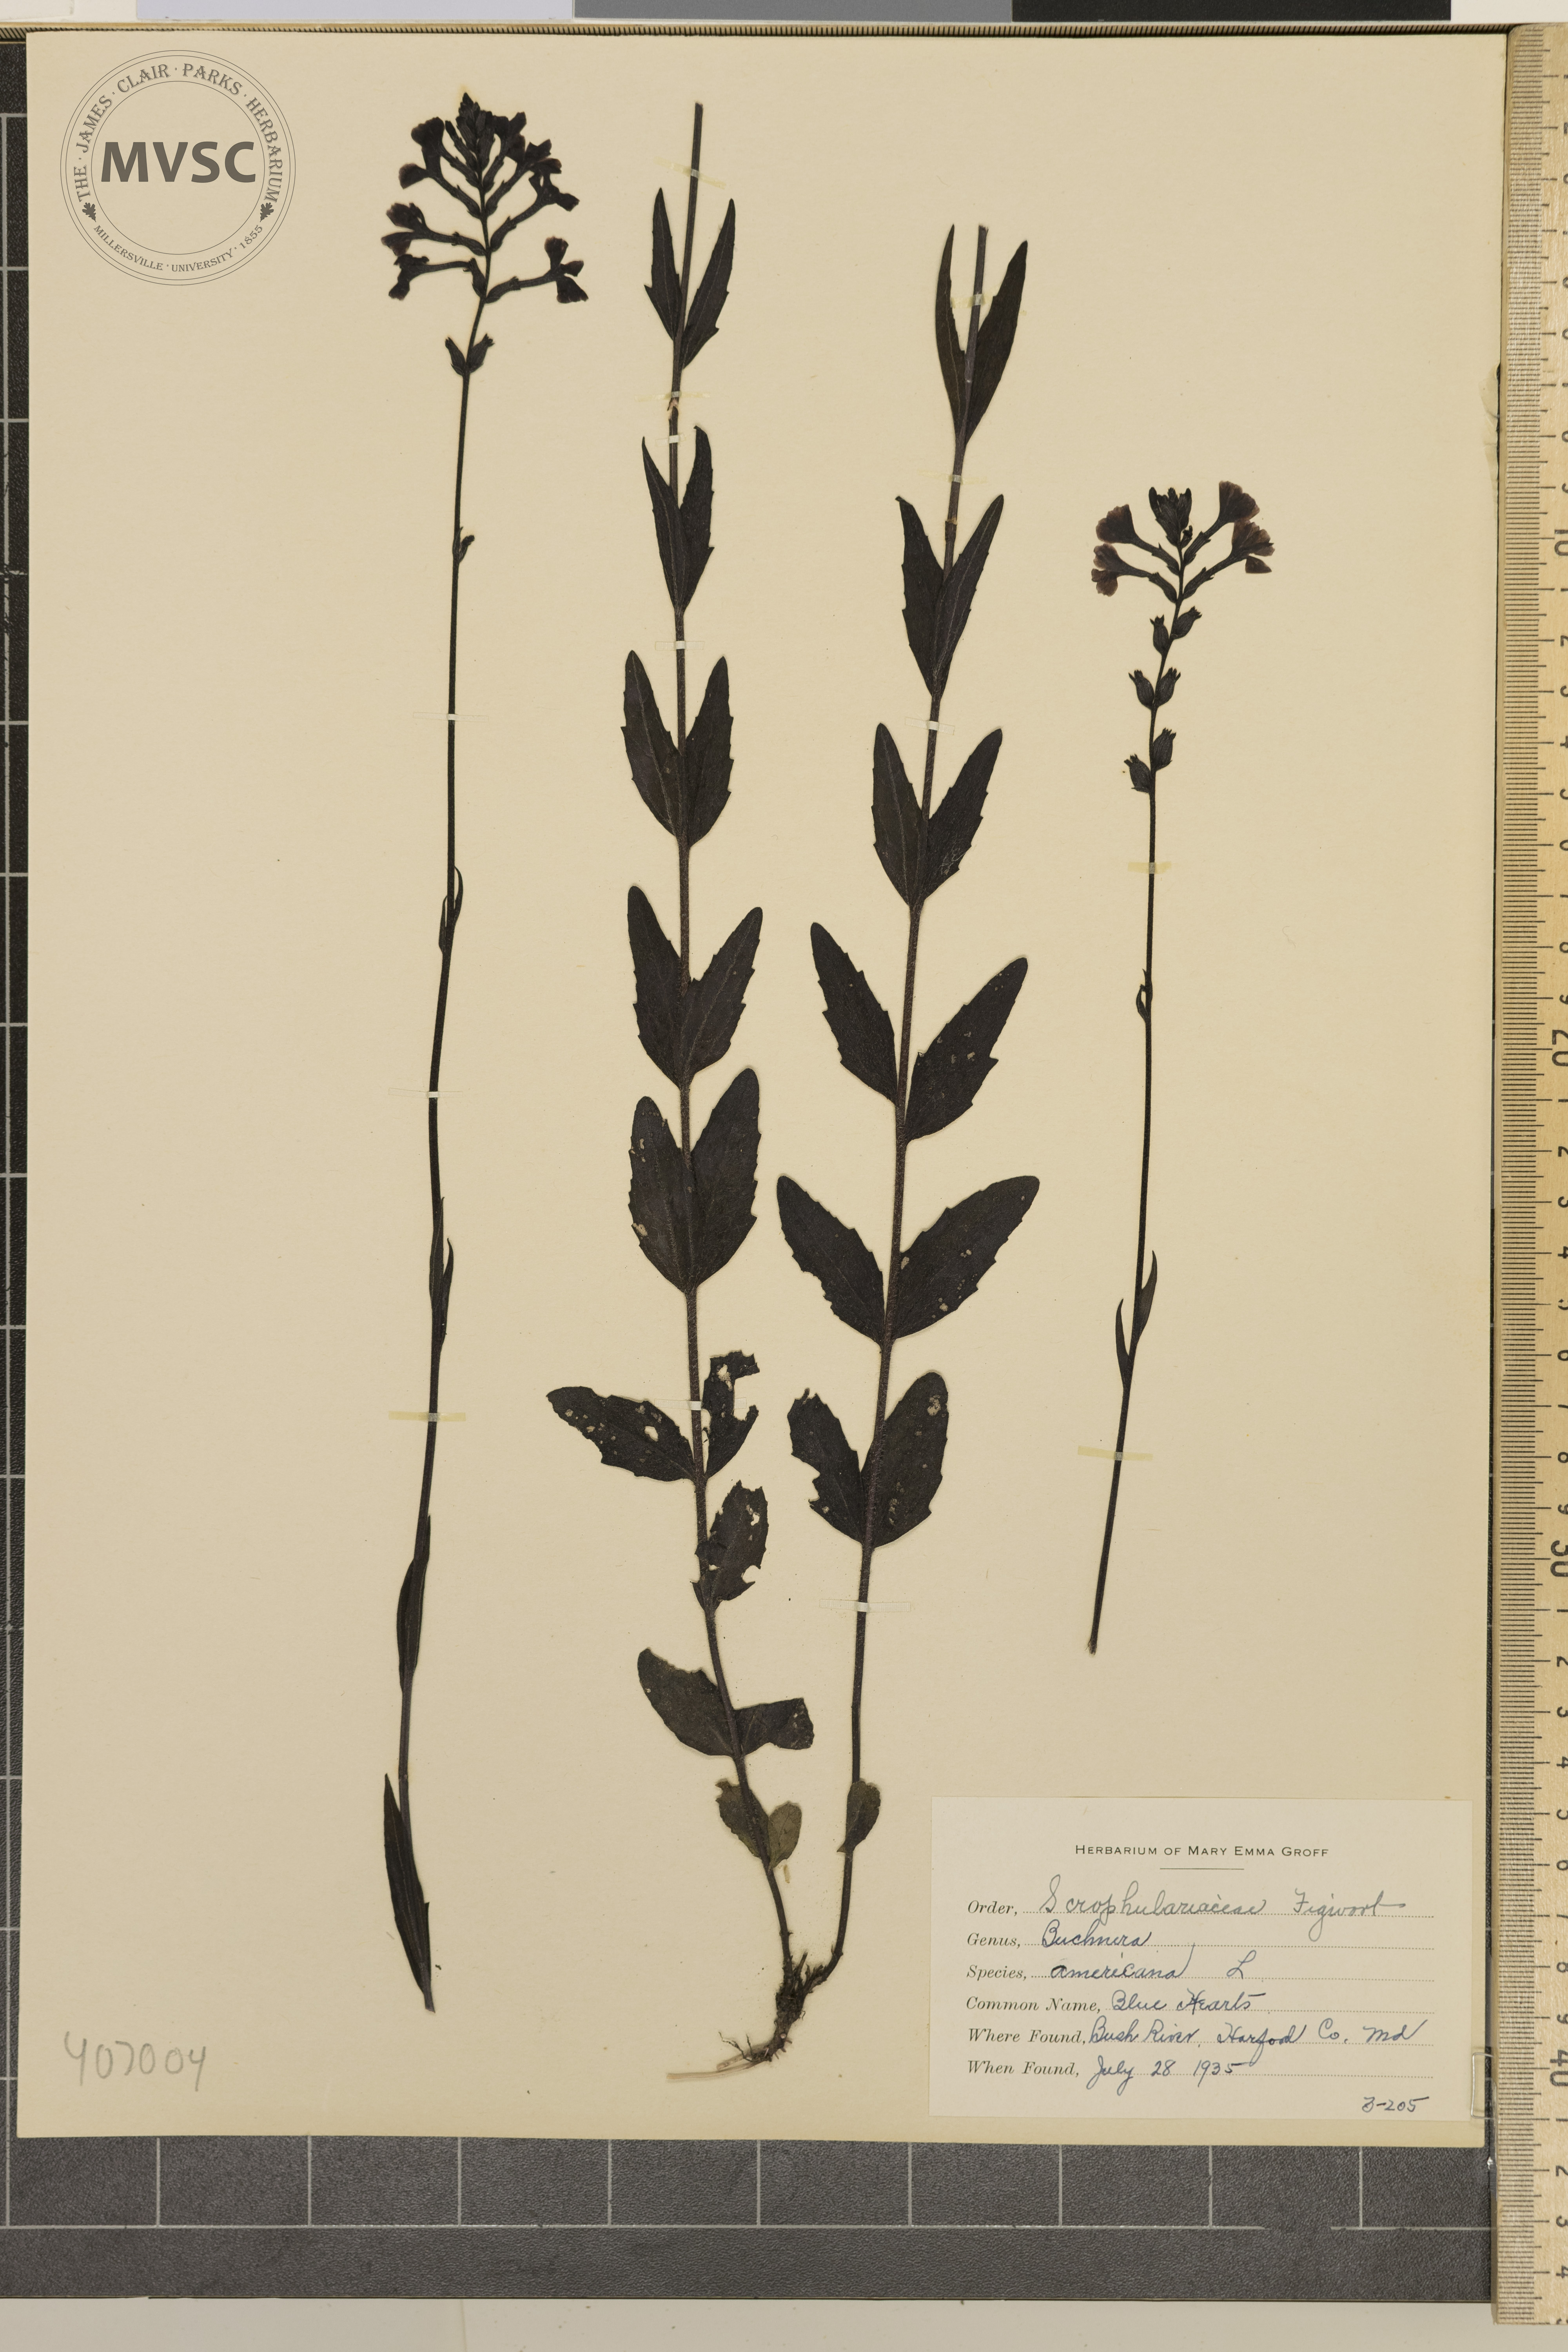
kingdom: Plantae
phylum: Tracheophyta
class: Magnoliopsida
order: Lamiales
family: Orobanchaceae
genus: Buchnera
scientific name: Buchnera americana
